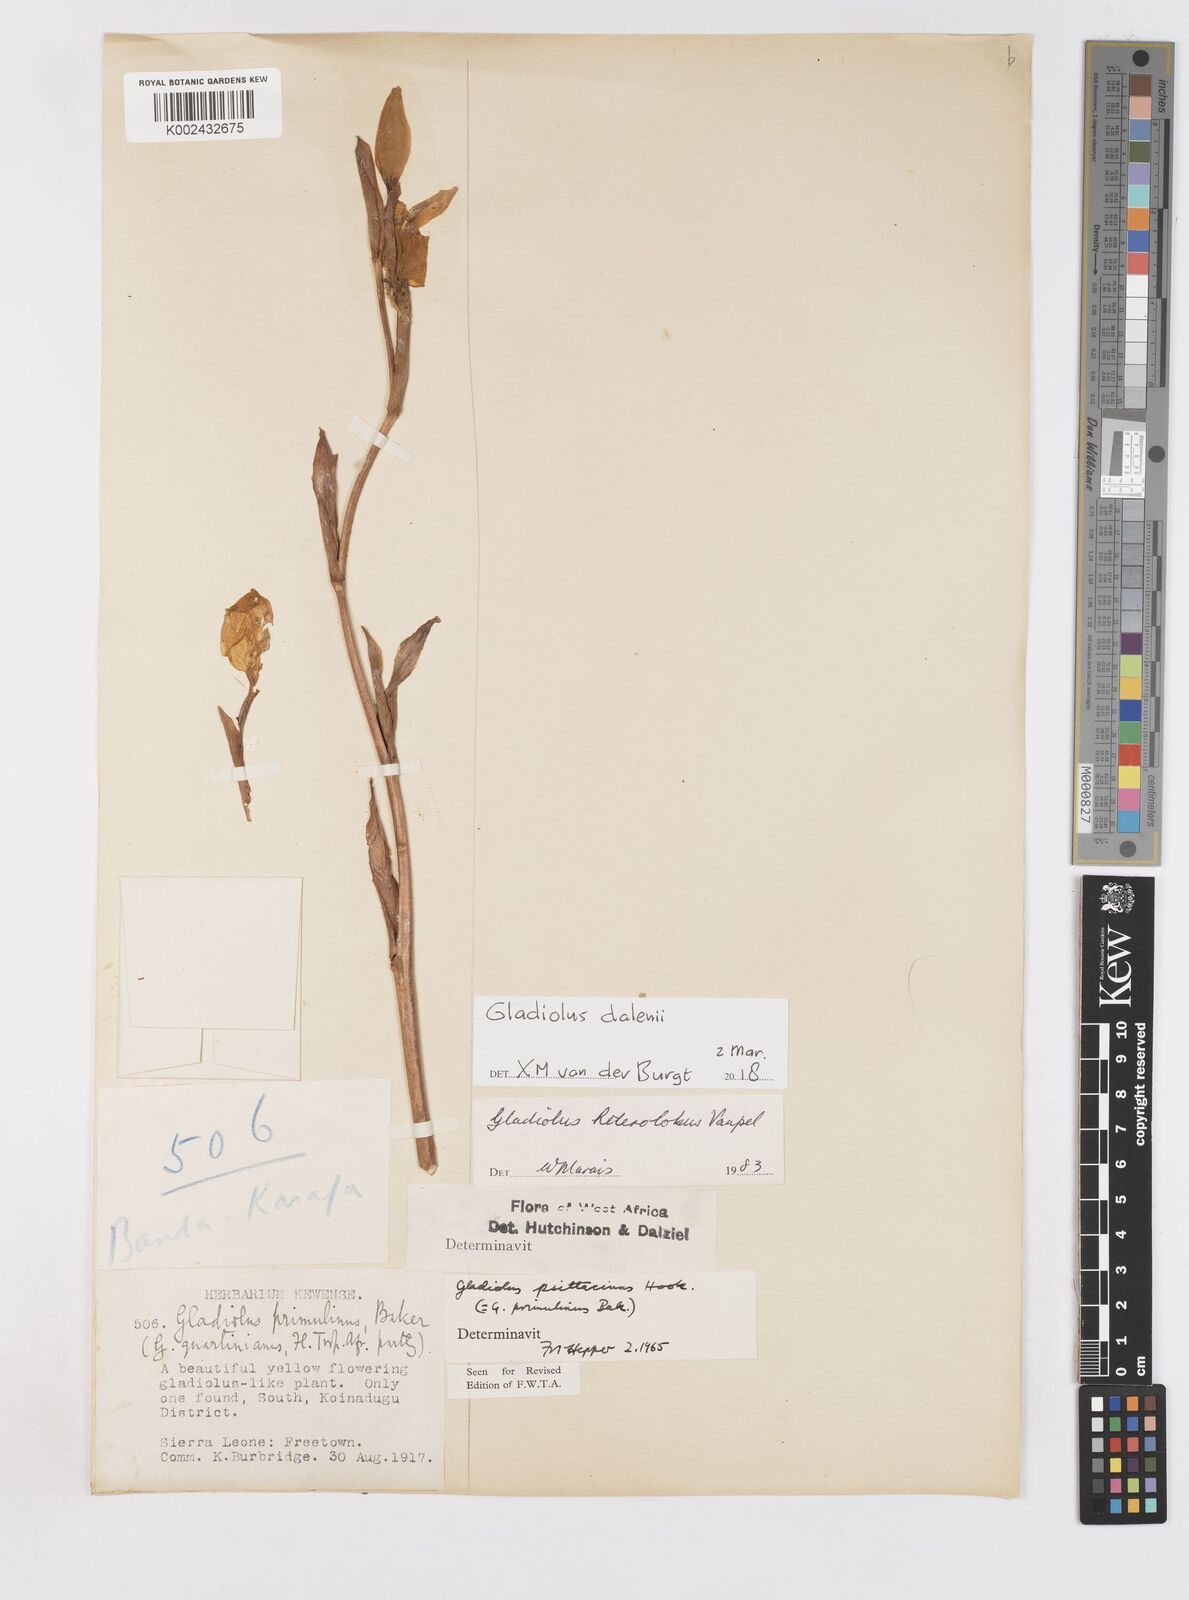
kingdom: Plantae
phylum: Tracheophyta
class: Liliopsida
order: Asparagales
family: Iridaceae
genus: Gladiolus
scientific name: Gladiolus dalenii
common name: Cornflag
